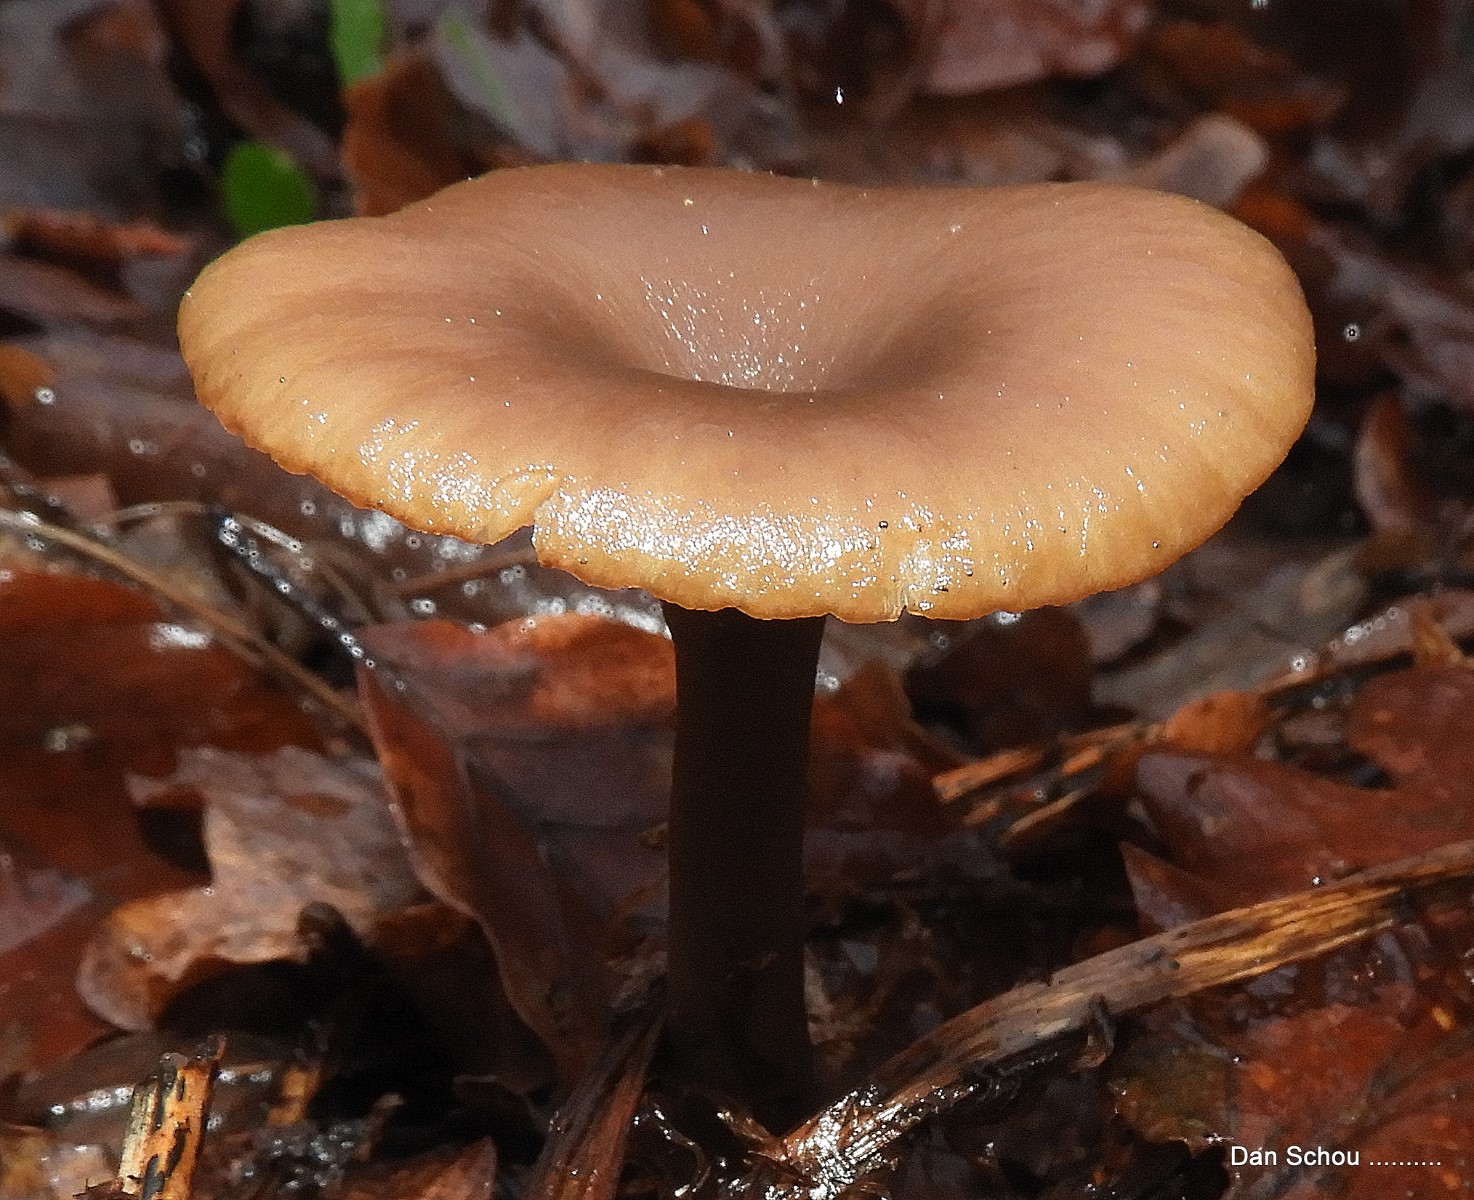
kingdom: Fungi
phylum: Basidiomycota
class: Agaricomycetes
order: Agaricales
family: Pseudoclitocybaceae
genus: Pseudoclitocybe
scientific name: Pseudoclitocybe cyathiformis
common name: almindelig bægertragthat
